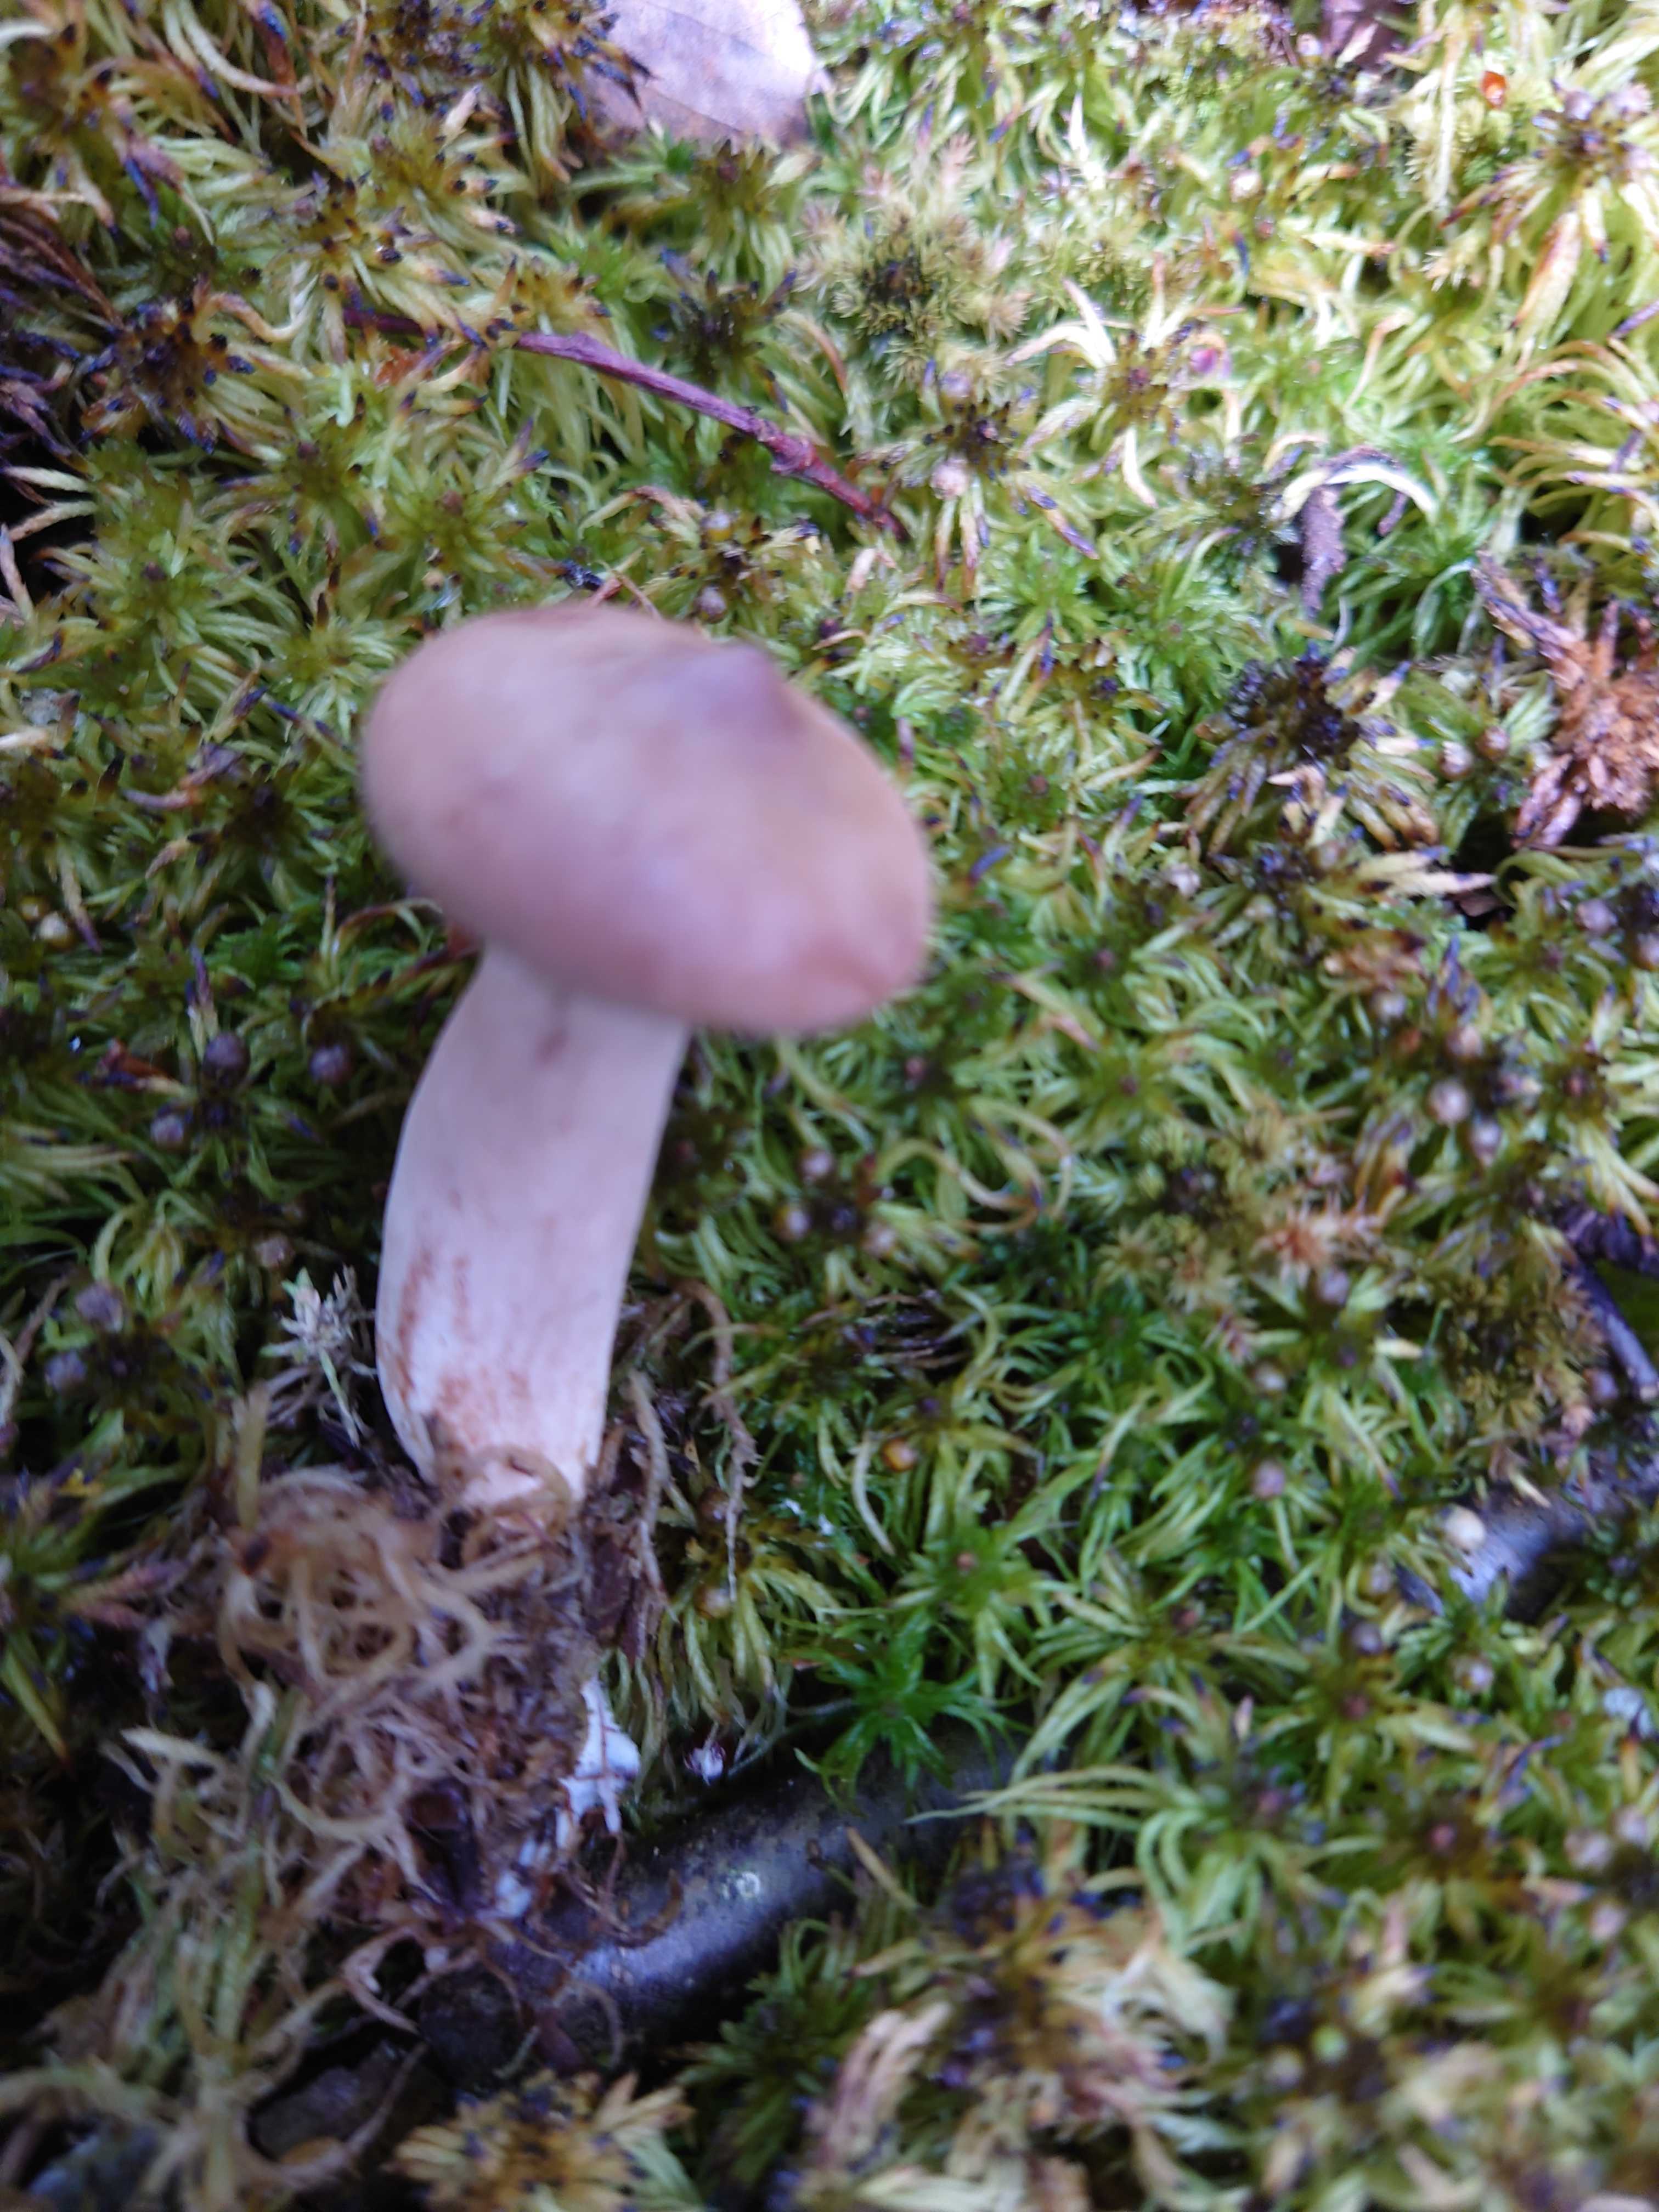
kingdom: Fungi
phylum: Basidiomycota
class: Agaricomycetes
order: Russulales
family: Russulaceae
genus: Lactarius
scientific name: Lactarius rufus
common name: rødbrun mælkehat
